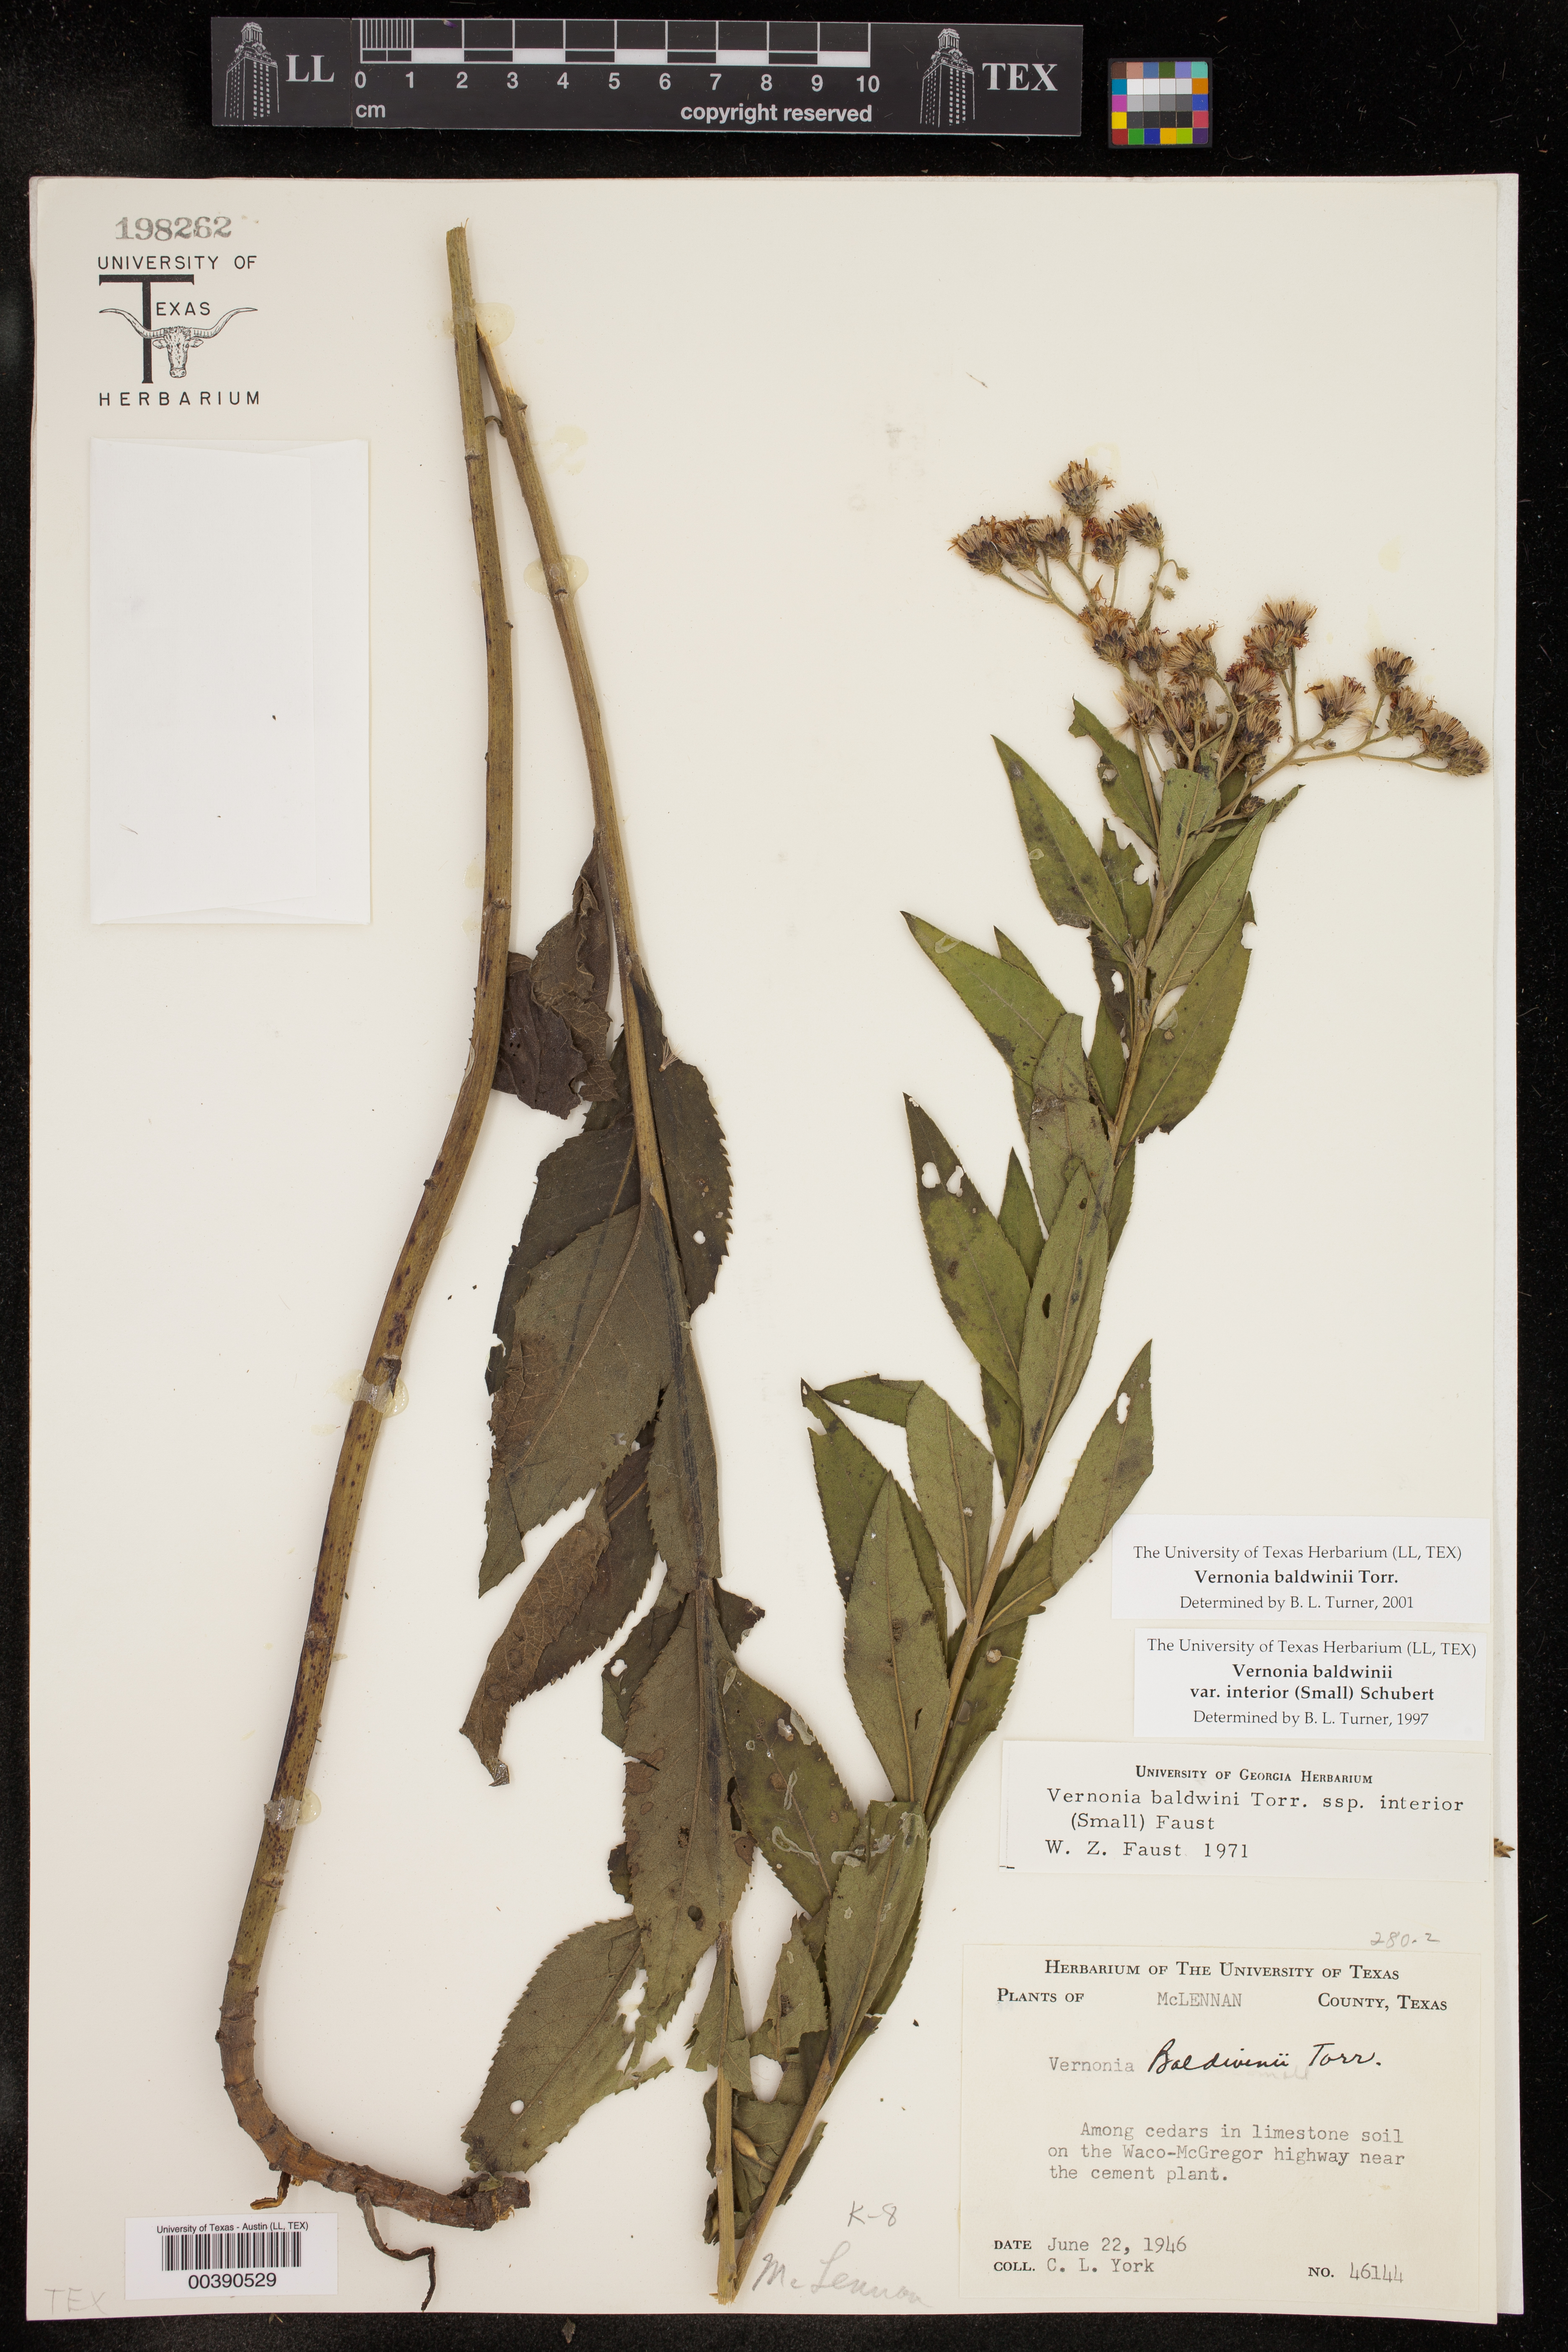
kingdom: Plantae
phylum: Tracheophyta
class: Magnoliopsida
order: Asterales
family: Asteraceae
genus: Vernonia
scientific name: Vernonia baldwinii
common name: Western ironweed
